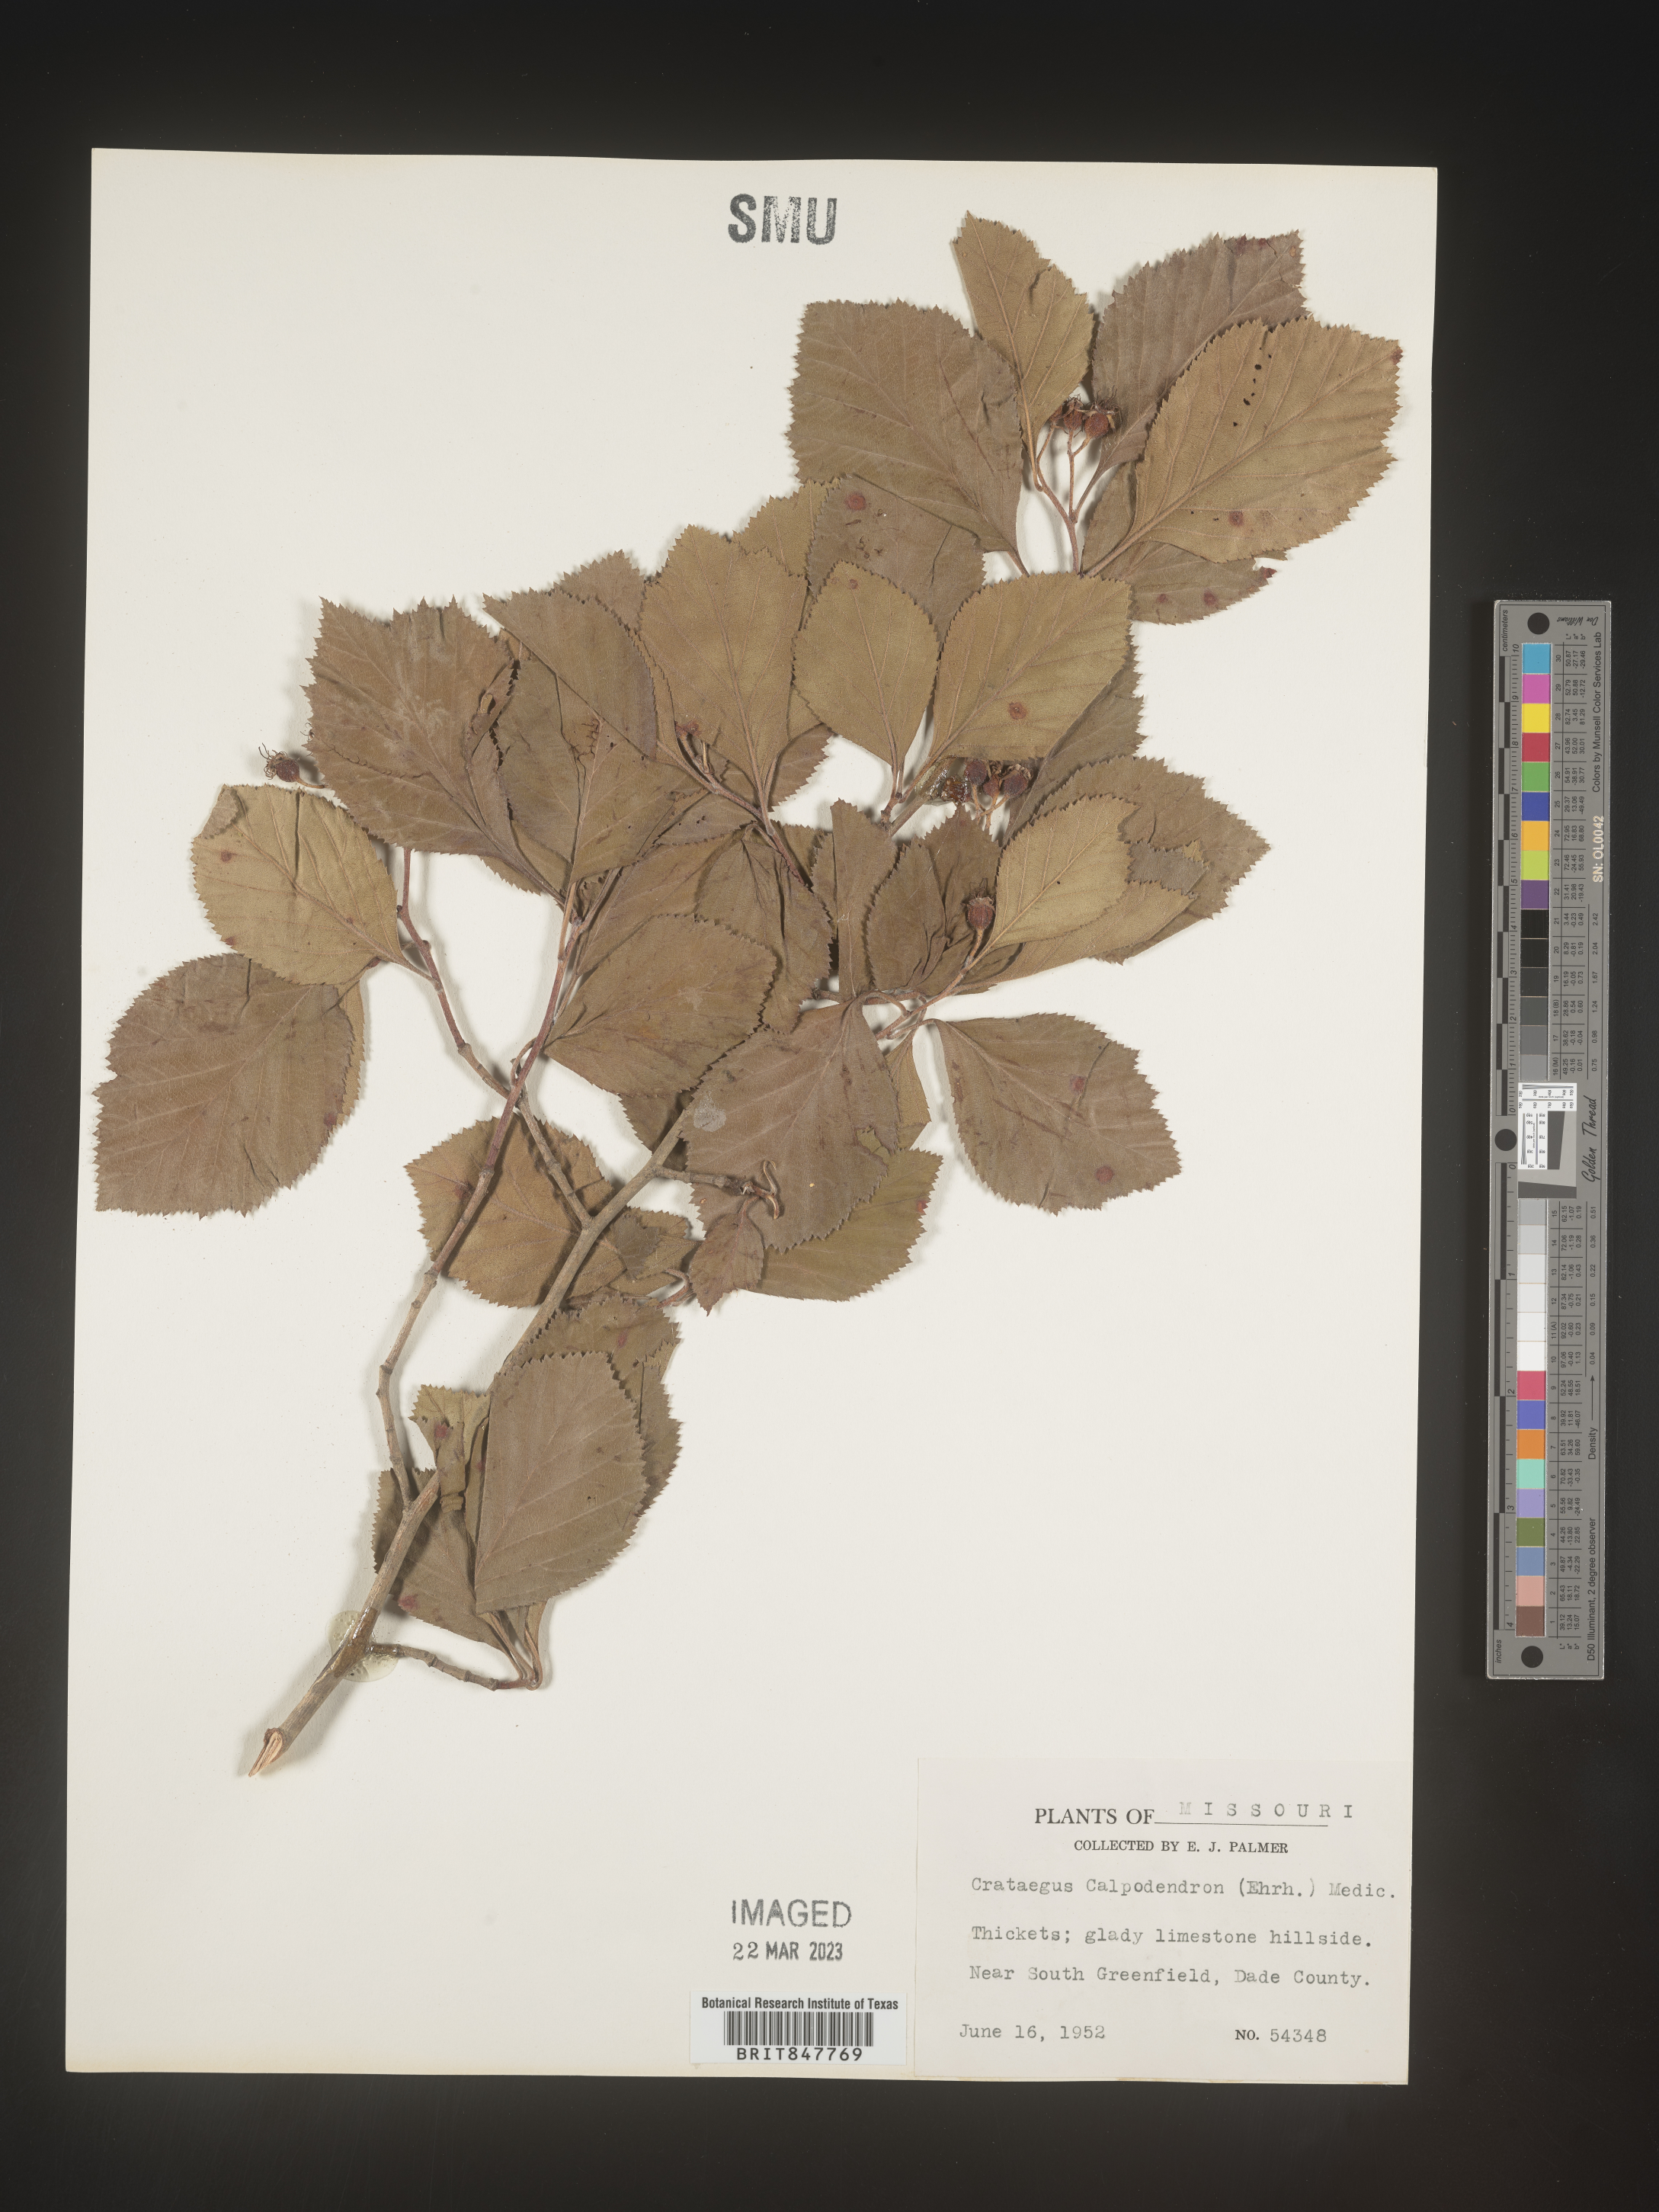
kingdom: Plantae
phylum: Tracheophyta
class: Magnoliopsida
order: Rosales
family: Rosaceae
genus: Crataegus
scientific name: Crataegus calpodendron
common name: Pear hawthorn
